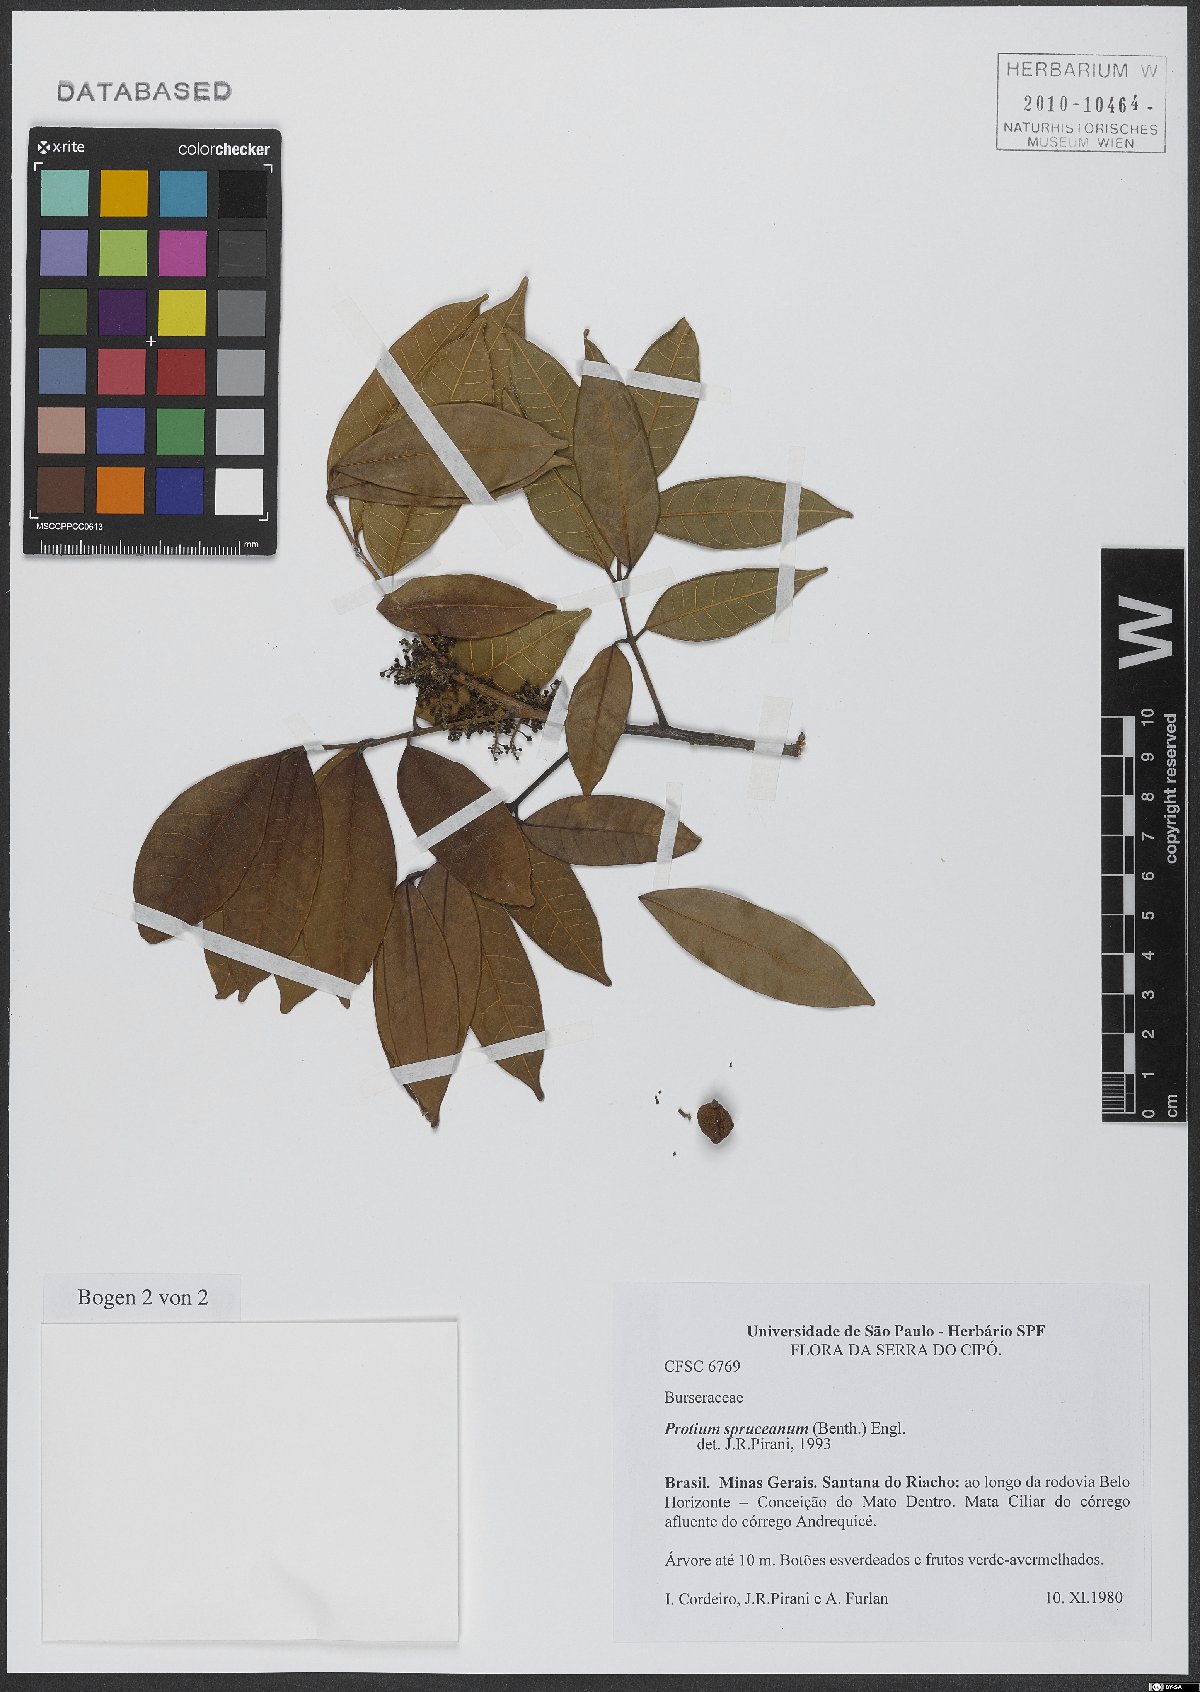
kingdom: Plantae
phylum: Tracheophyta
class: Magnoliopsida
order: Sapindales
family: Burseraceae
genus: Protium
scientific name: Protium spruceanum
